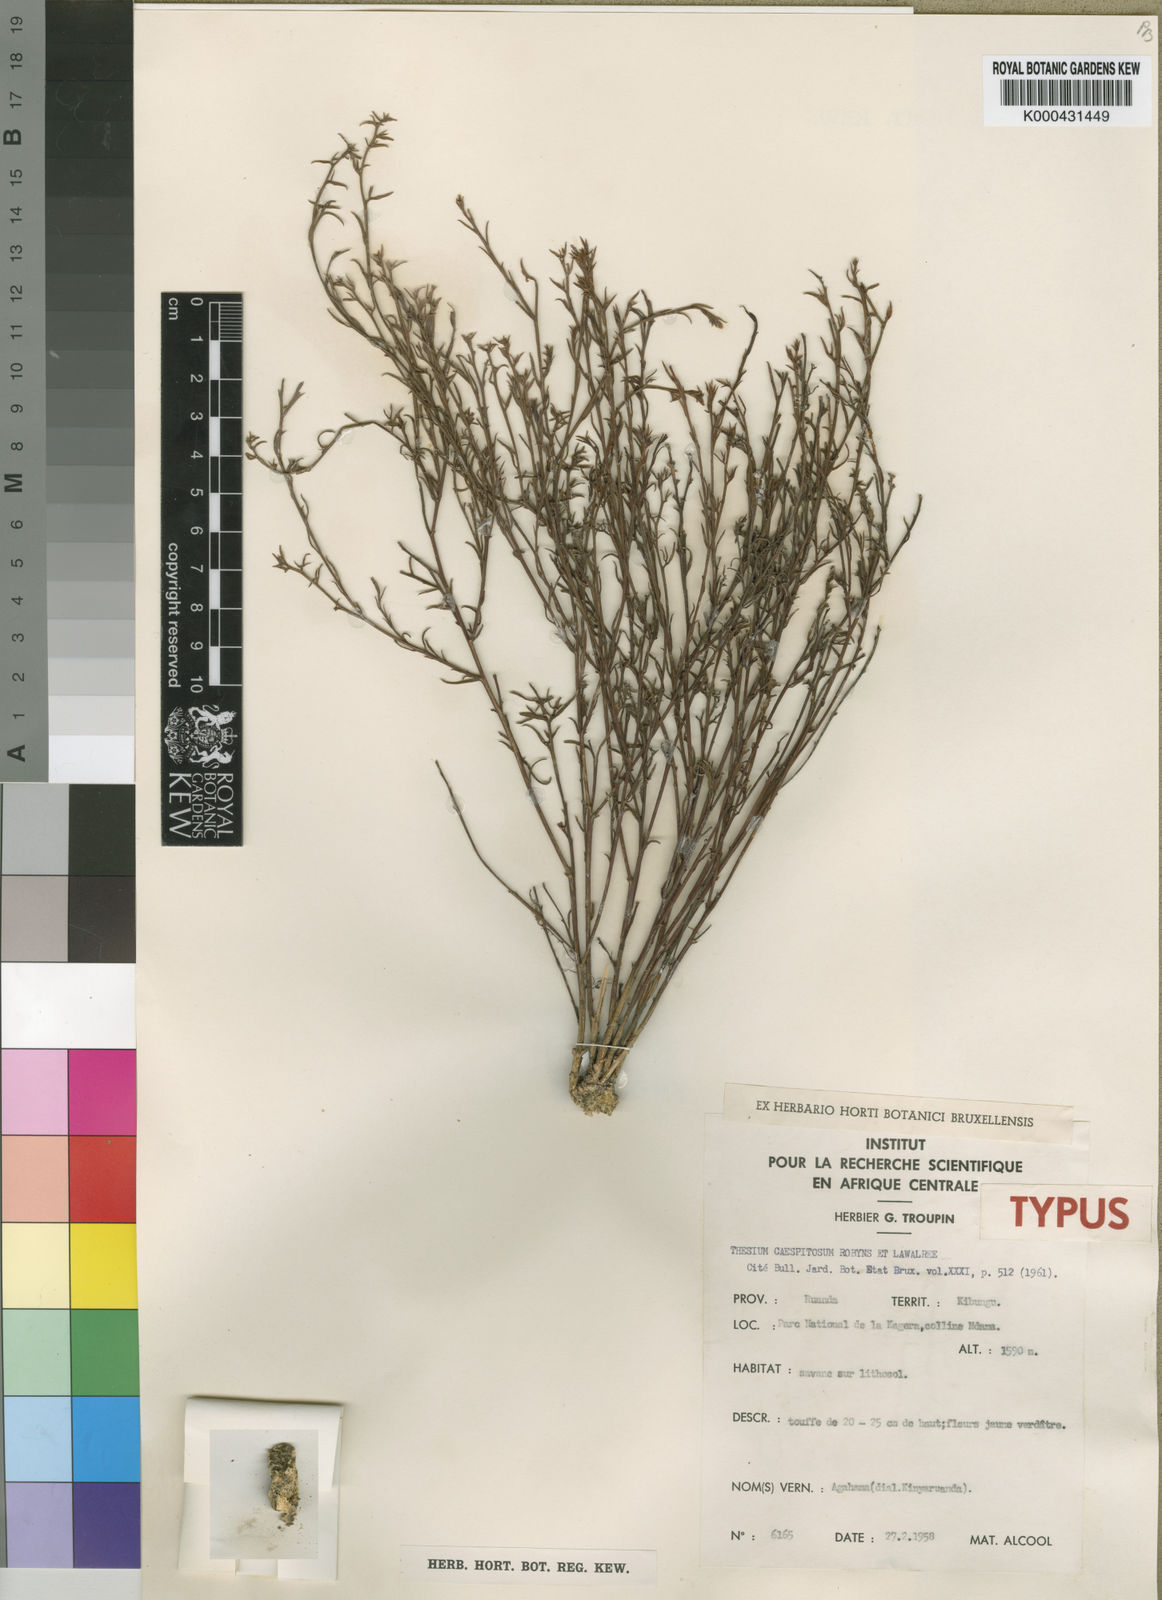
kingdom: Plantae
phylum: Tracheophyta
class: Magnoliopsida
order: Santalales
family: Thesiaceae
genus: Thesium
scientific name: Thesium
